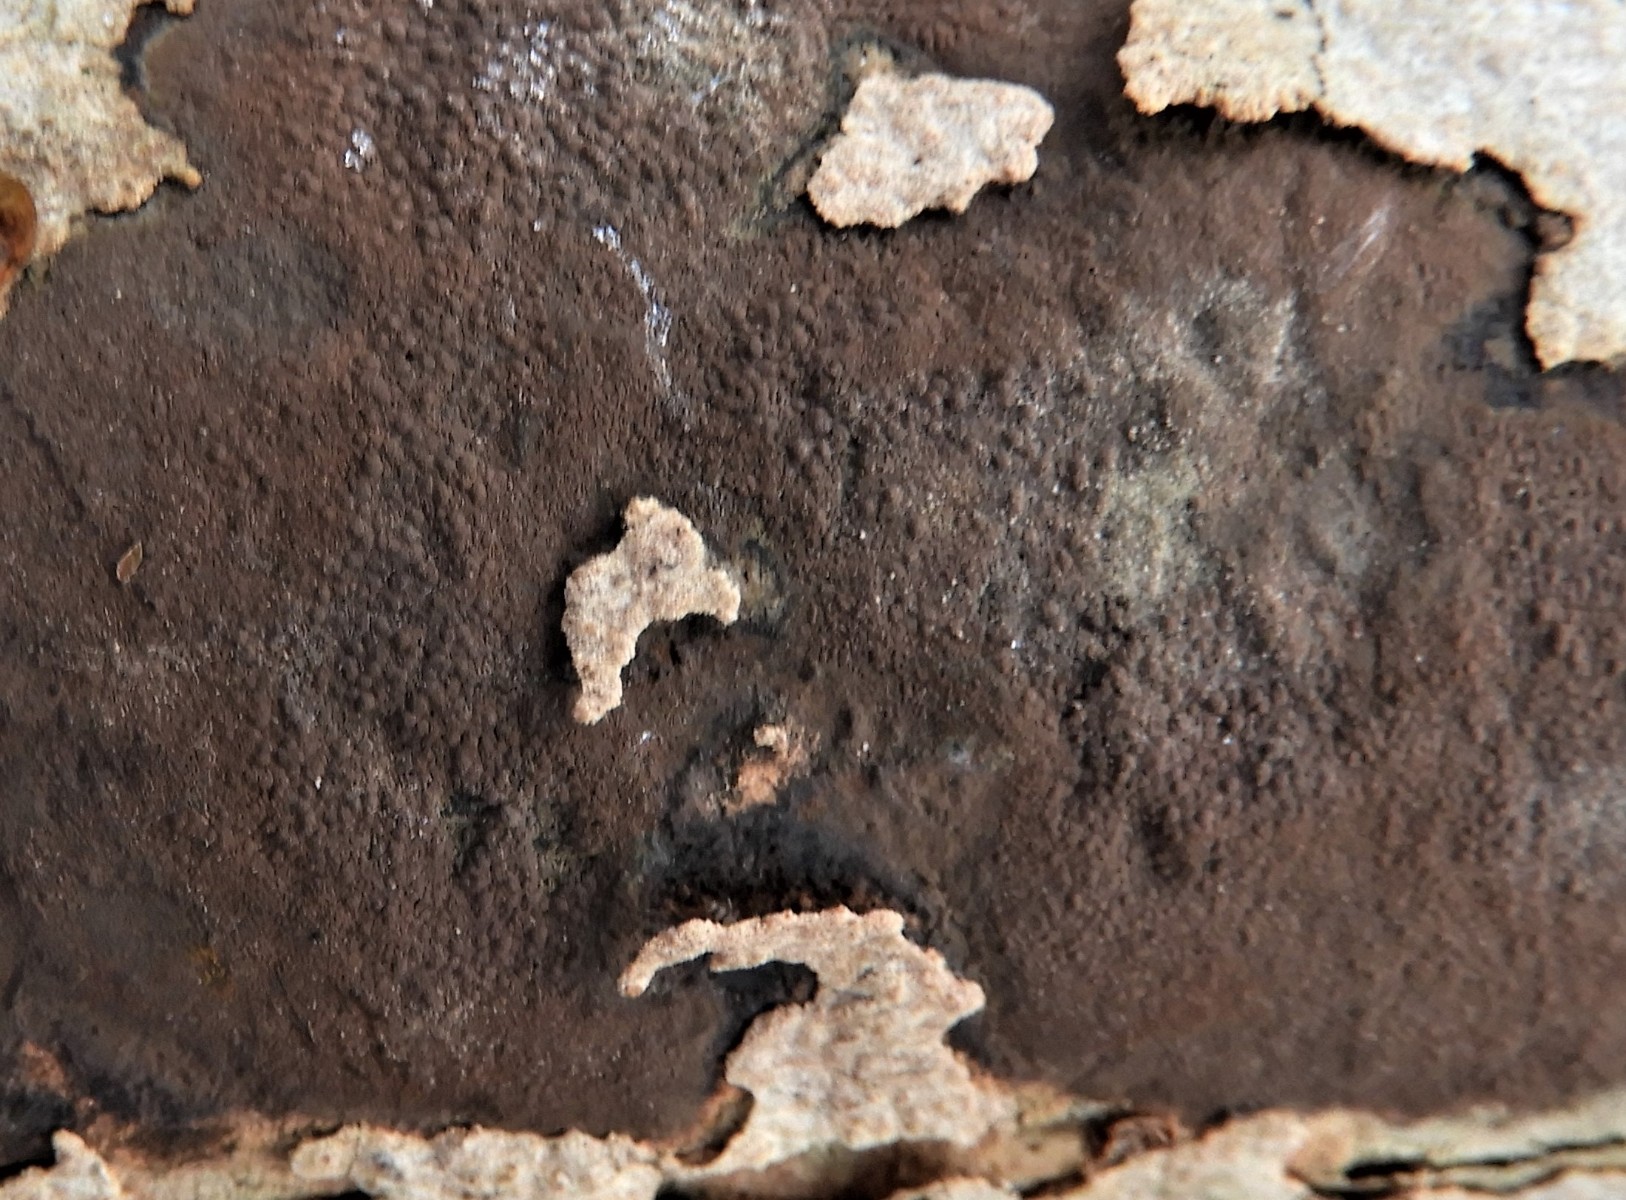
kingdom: Fungi
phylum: Ascomycota
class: Sordariomycetes
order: Xylariales
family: Hypoxylaceae
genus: Hypoxylon
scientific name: Hypoxylon petriniae
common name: nedsænket kulbær
